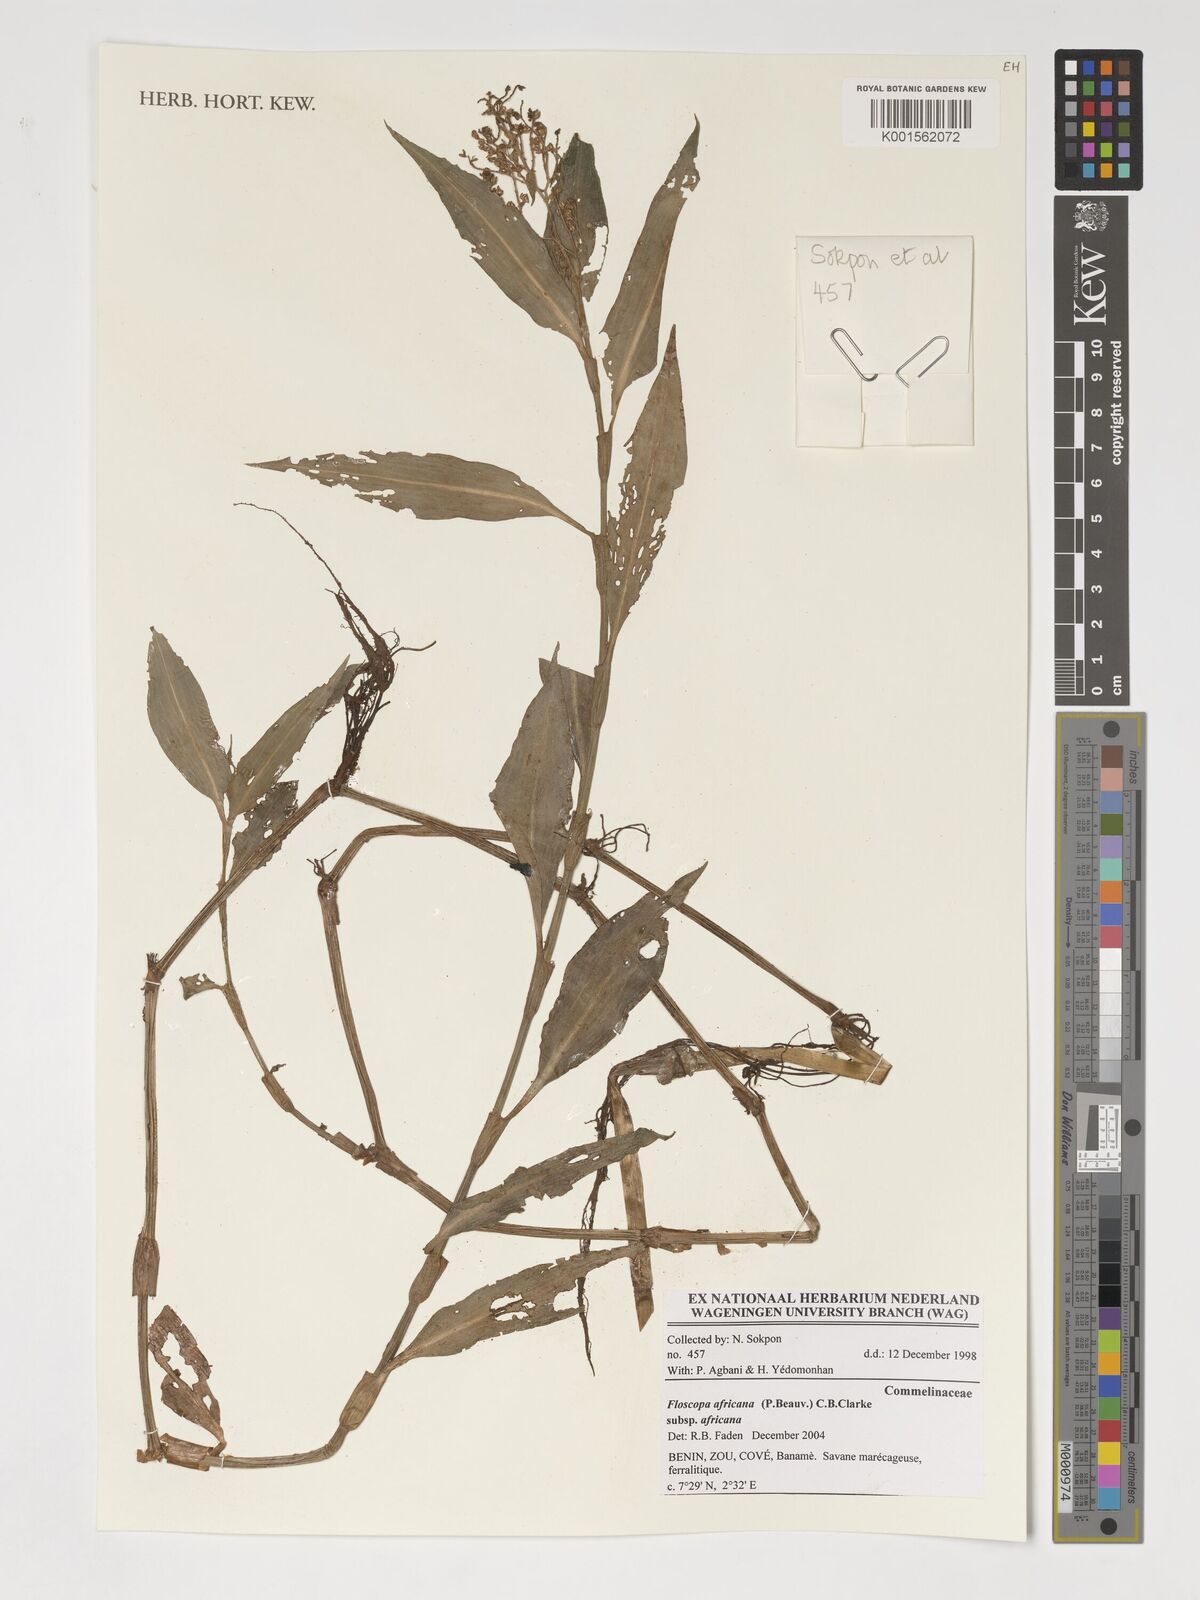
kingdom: Plantae
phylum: Tracheophyta
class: Liliopsida
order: Commelinales
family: Commelinaceae
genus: Floscopa
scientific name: Floscopa africana
